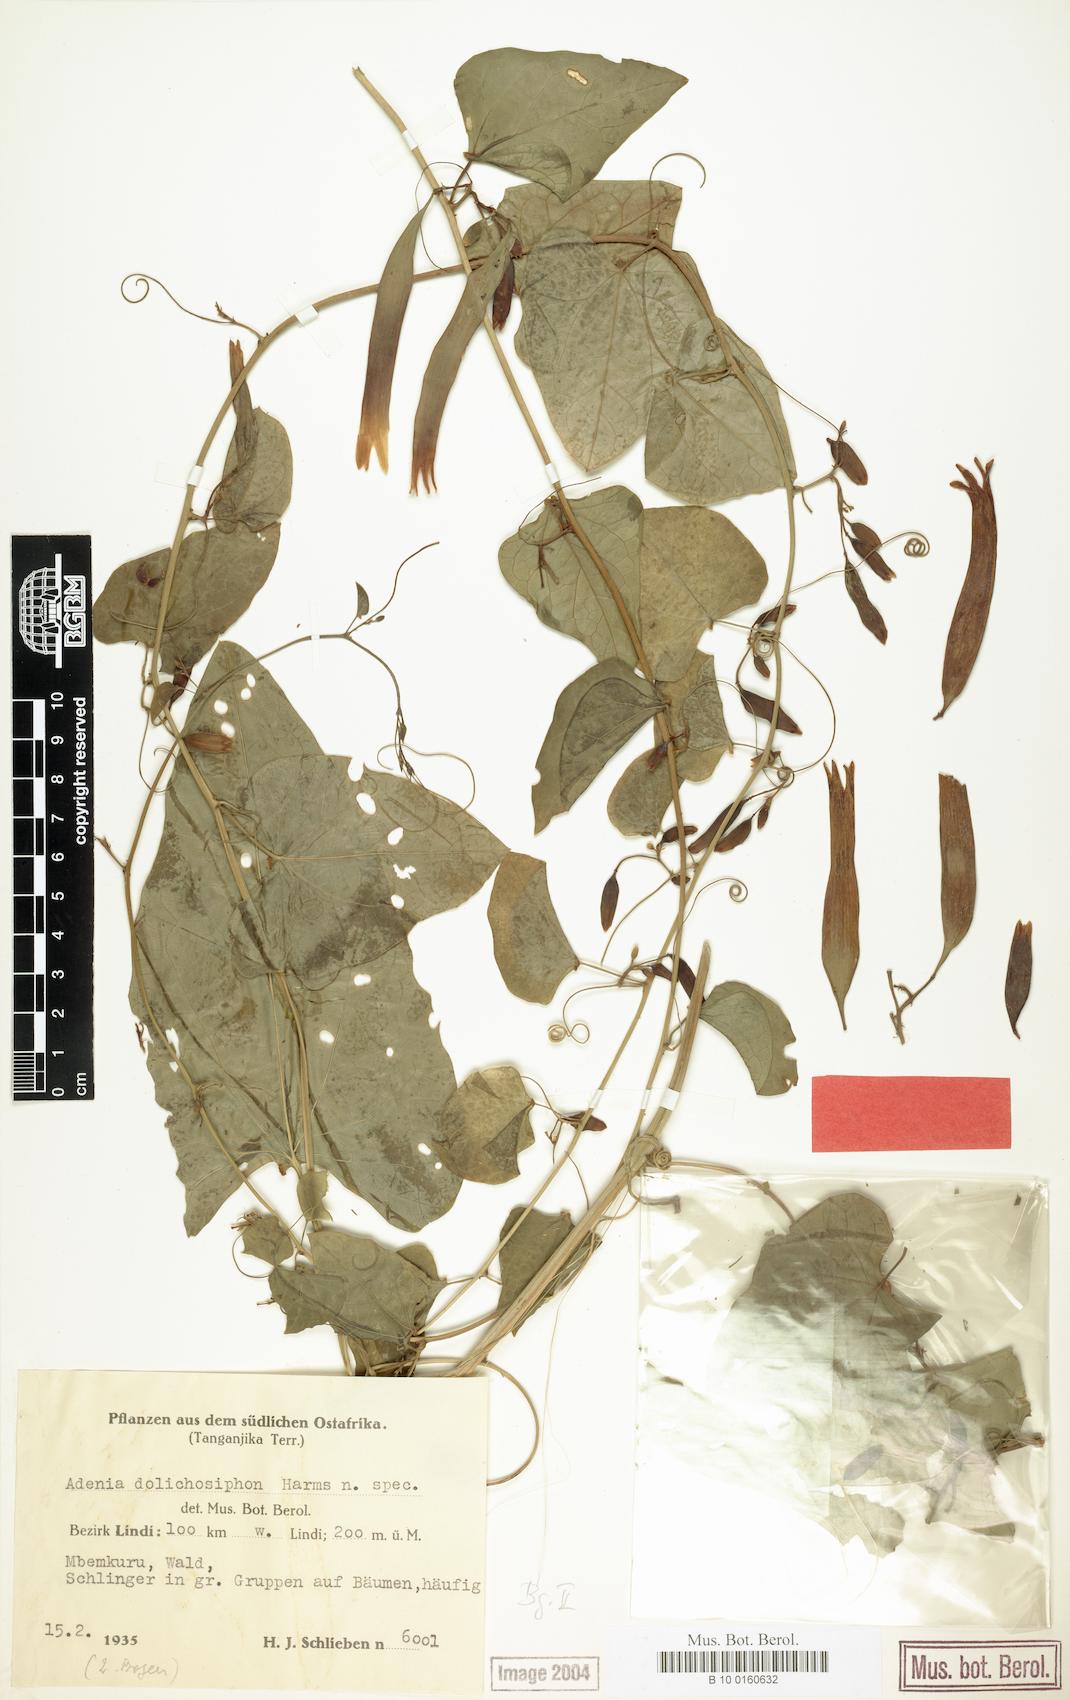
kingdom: Plantae
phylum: Tracheophyta
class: Magnoliopsida
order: Malpighiales
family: Passifloraceae
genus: Adenia
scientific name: Adenia dolichosiphon
